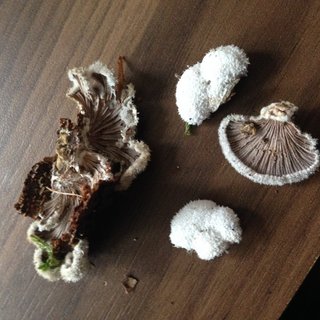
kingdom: Fungi
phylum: Basidiomycota
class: Agaricomycetes
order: Agaricales
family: Schizophyllaceae
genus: Schizophyllum
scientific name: Schizophyllum commune
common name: kløvblad
